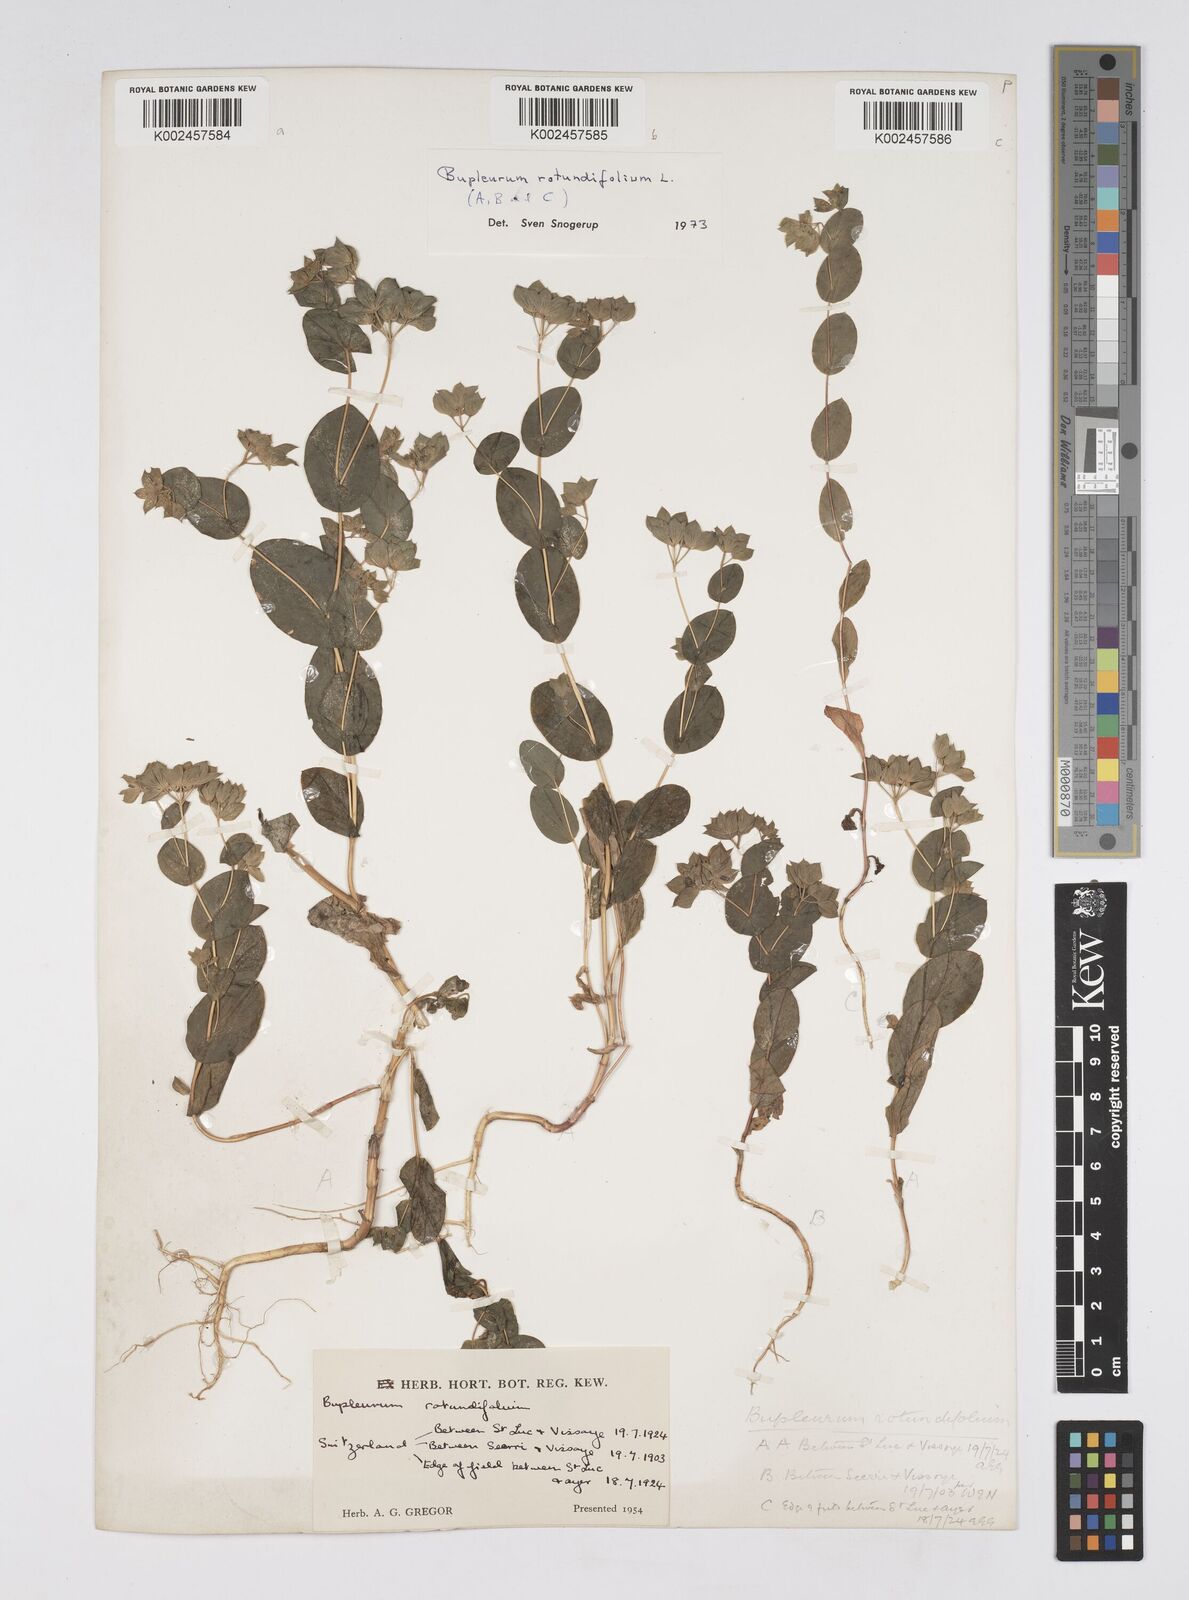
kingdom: Plantae
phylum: Tracheophyta
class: Magnoliopsida
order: Apiales
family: Apiaceae
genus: Bupleurum
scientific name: Bupleurum rotundifolium
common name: Thorow-wax
